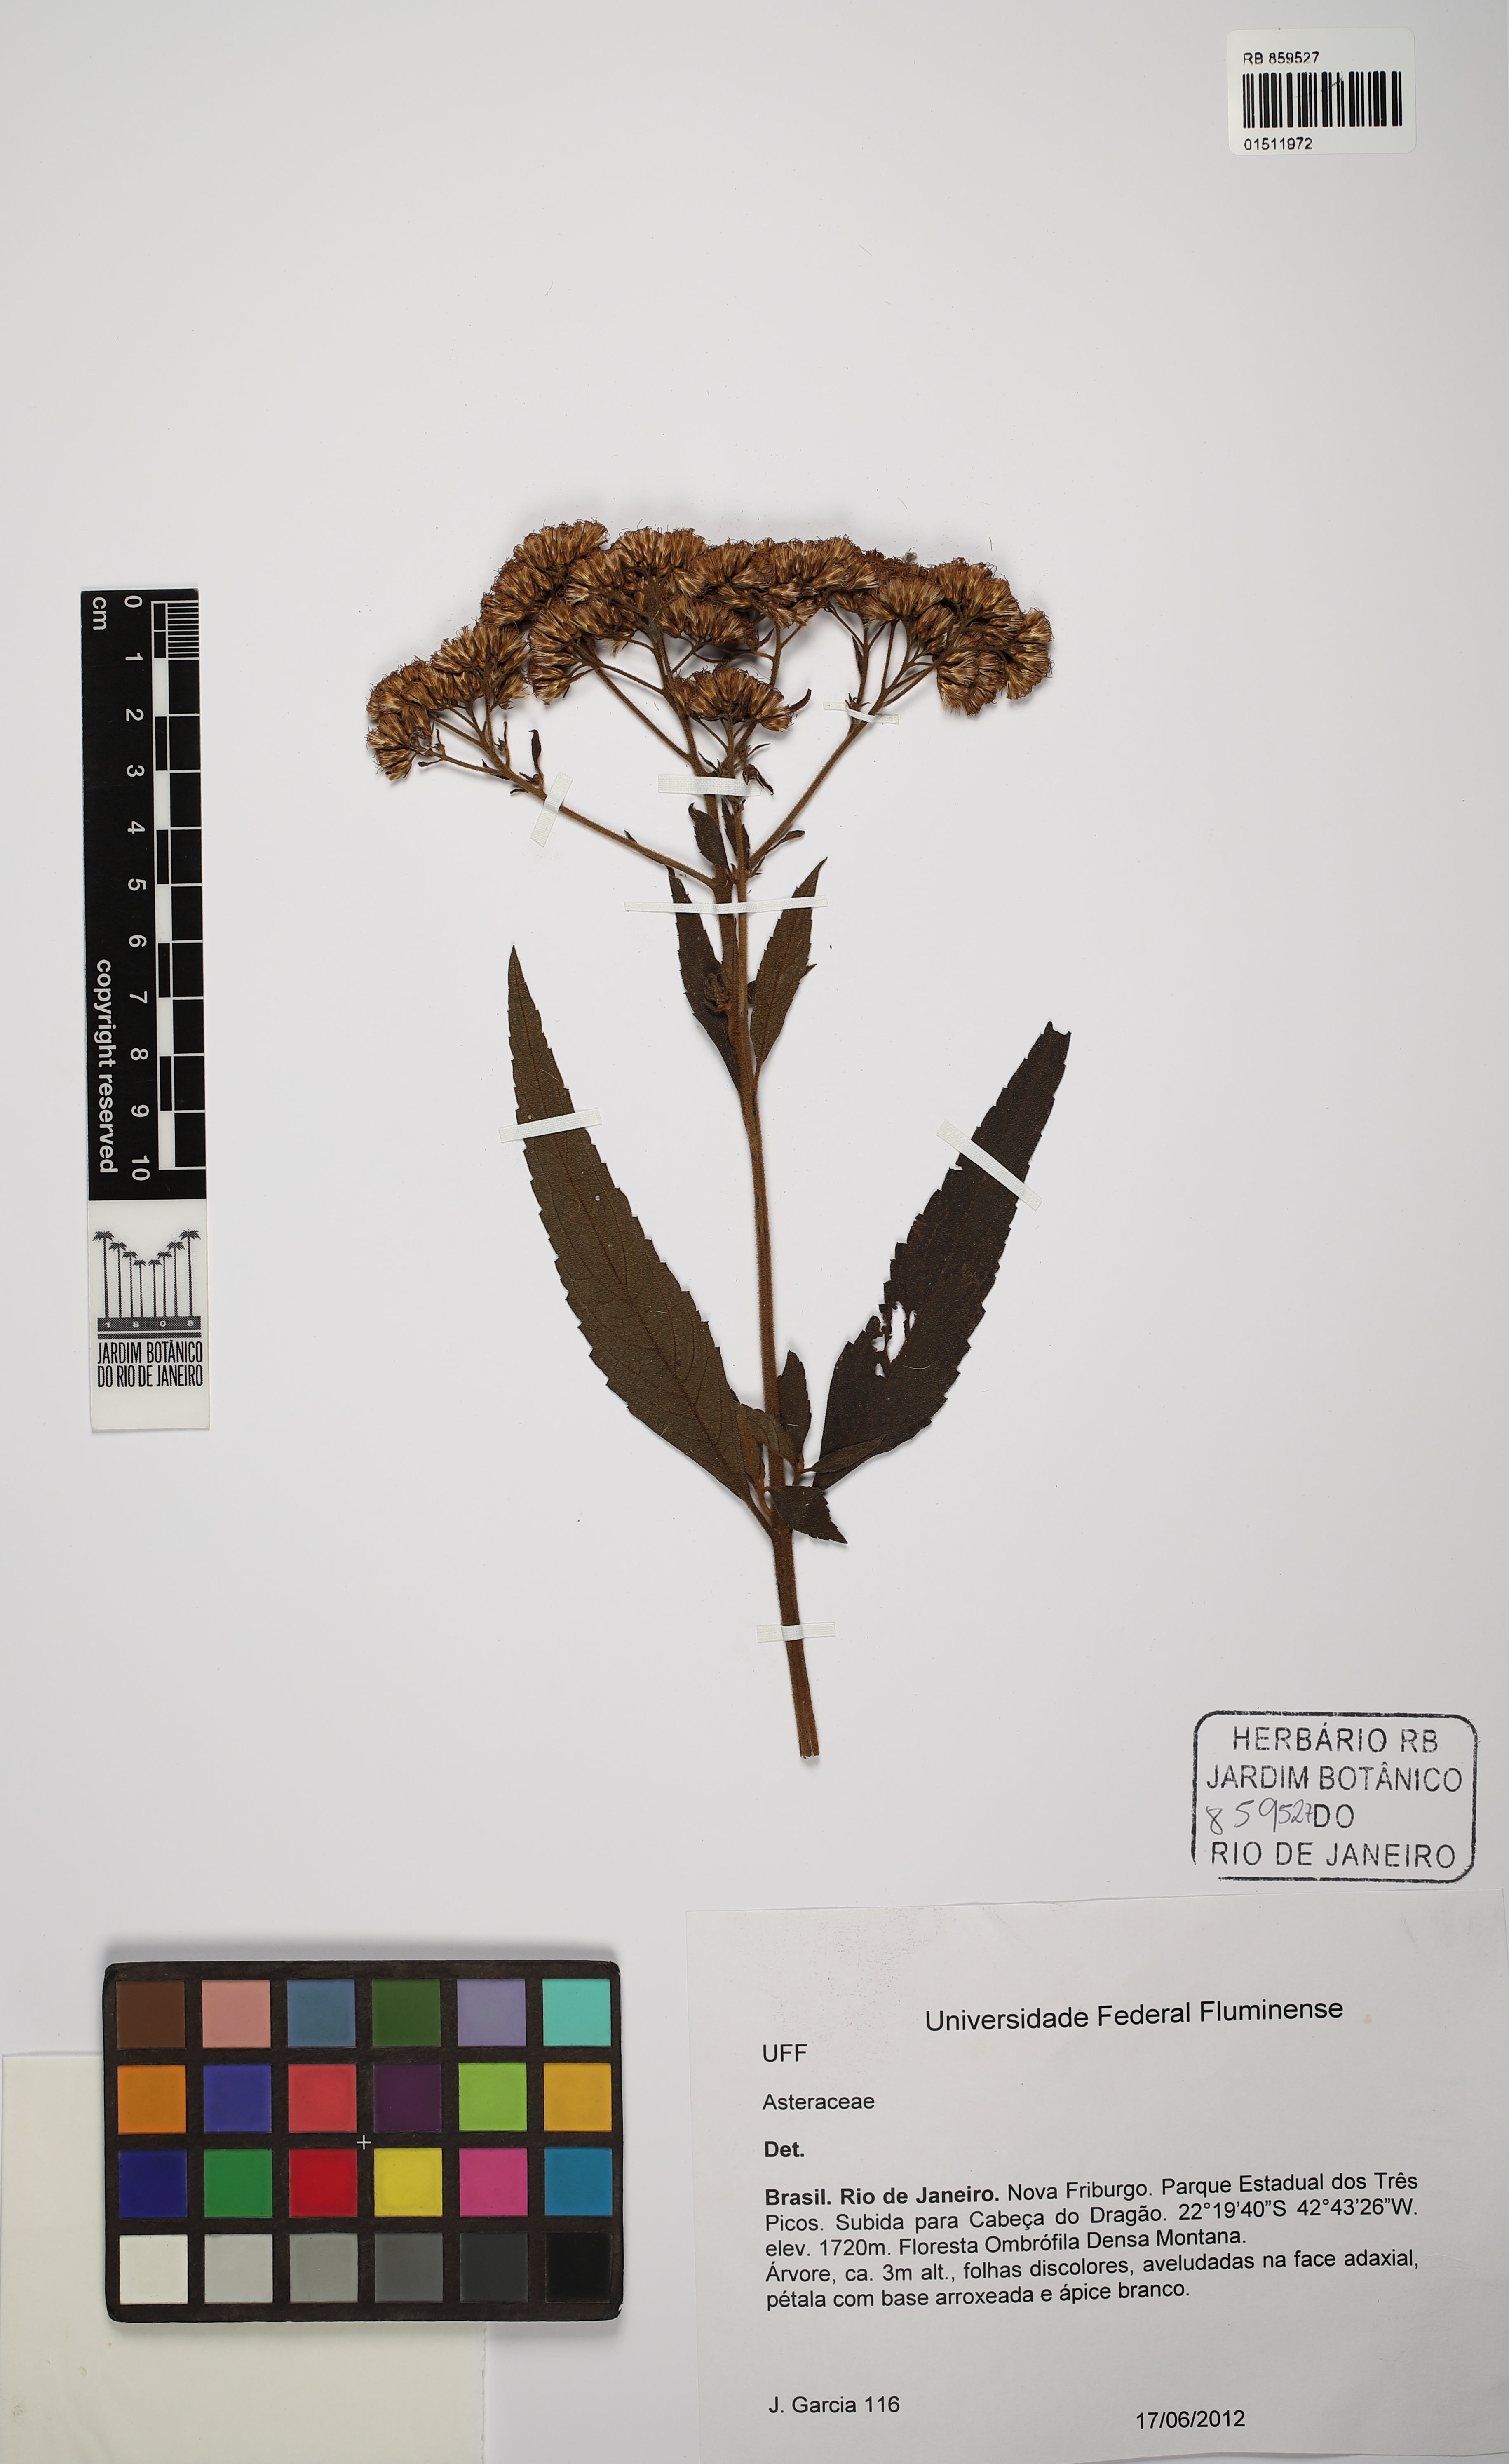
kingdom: Plantae
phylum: Tracheophyta
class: Magnoliopsida
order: Asterales
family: Asteraceae
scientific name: Asteraceae
